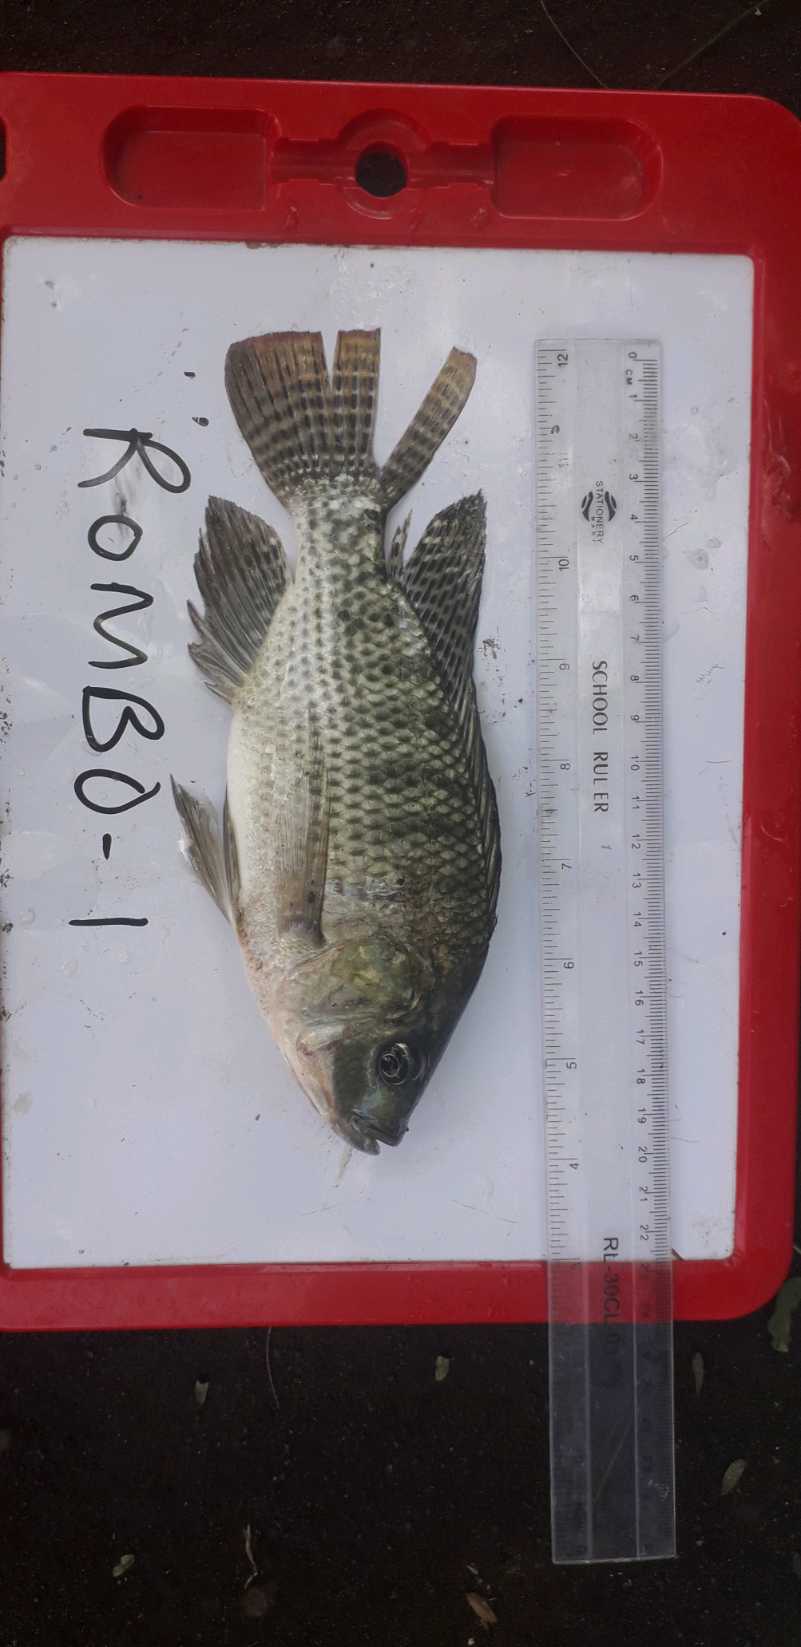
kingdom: Animalia
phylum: Chordata
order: Perciformes
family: Cichlidae
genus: Oreochromis
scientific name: Oreochromis niloticus
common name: Nile tilapia
